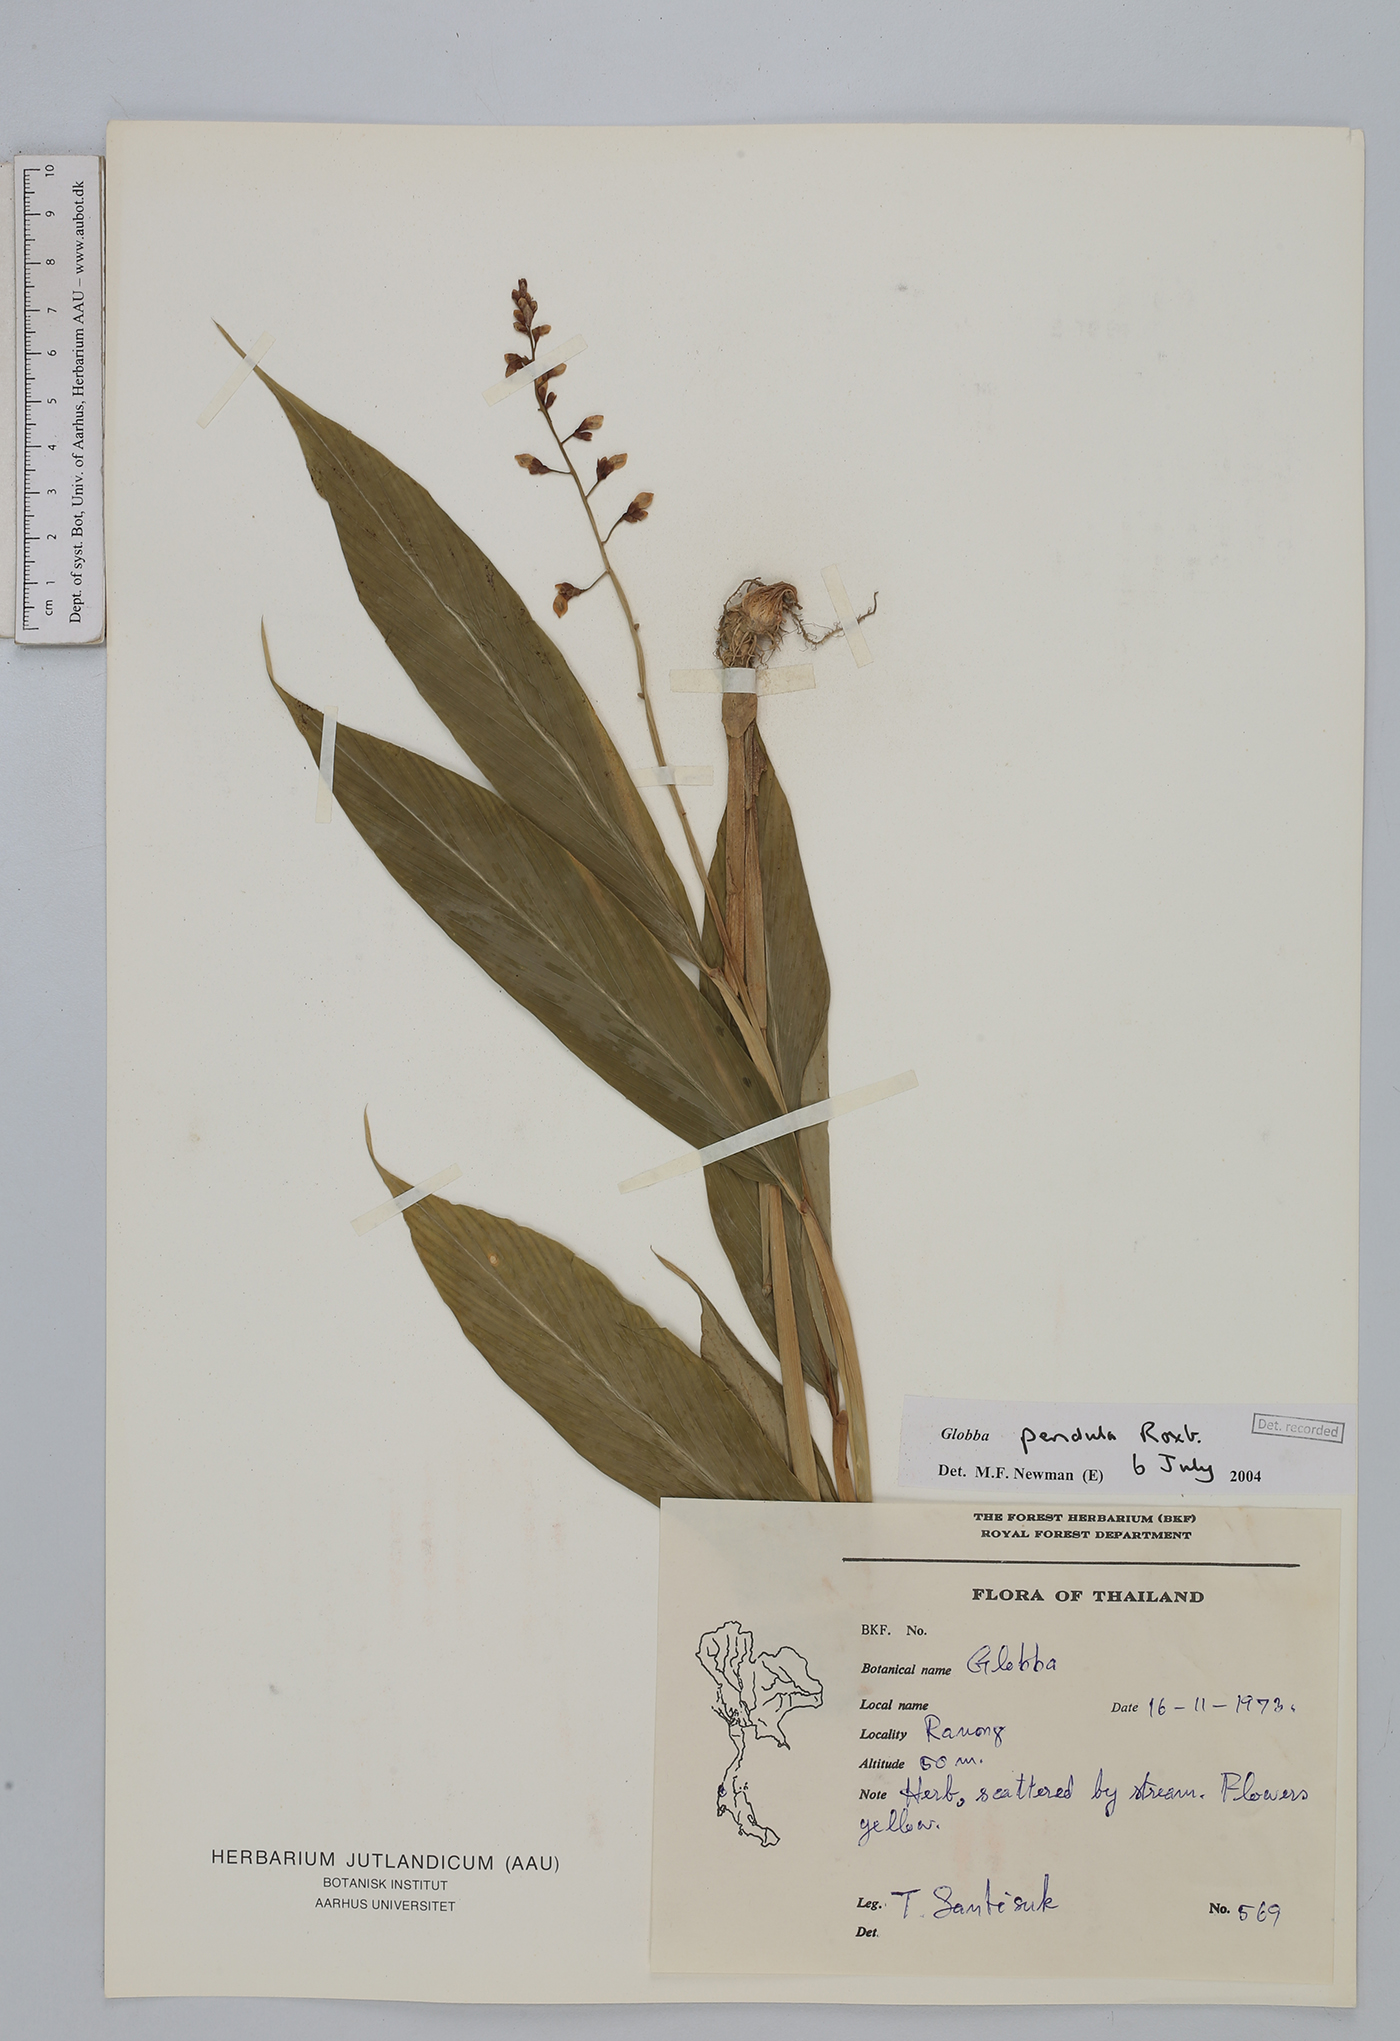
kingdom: Plantae
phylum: Tracheophyta
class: Liliopsida
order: Zingiberales
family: Zingiberaceae
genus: Globba
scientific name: Globba pendula
